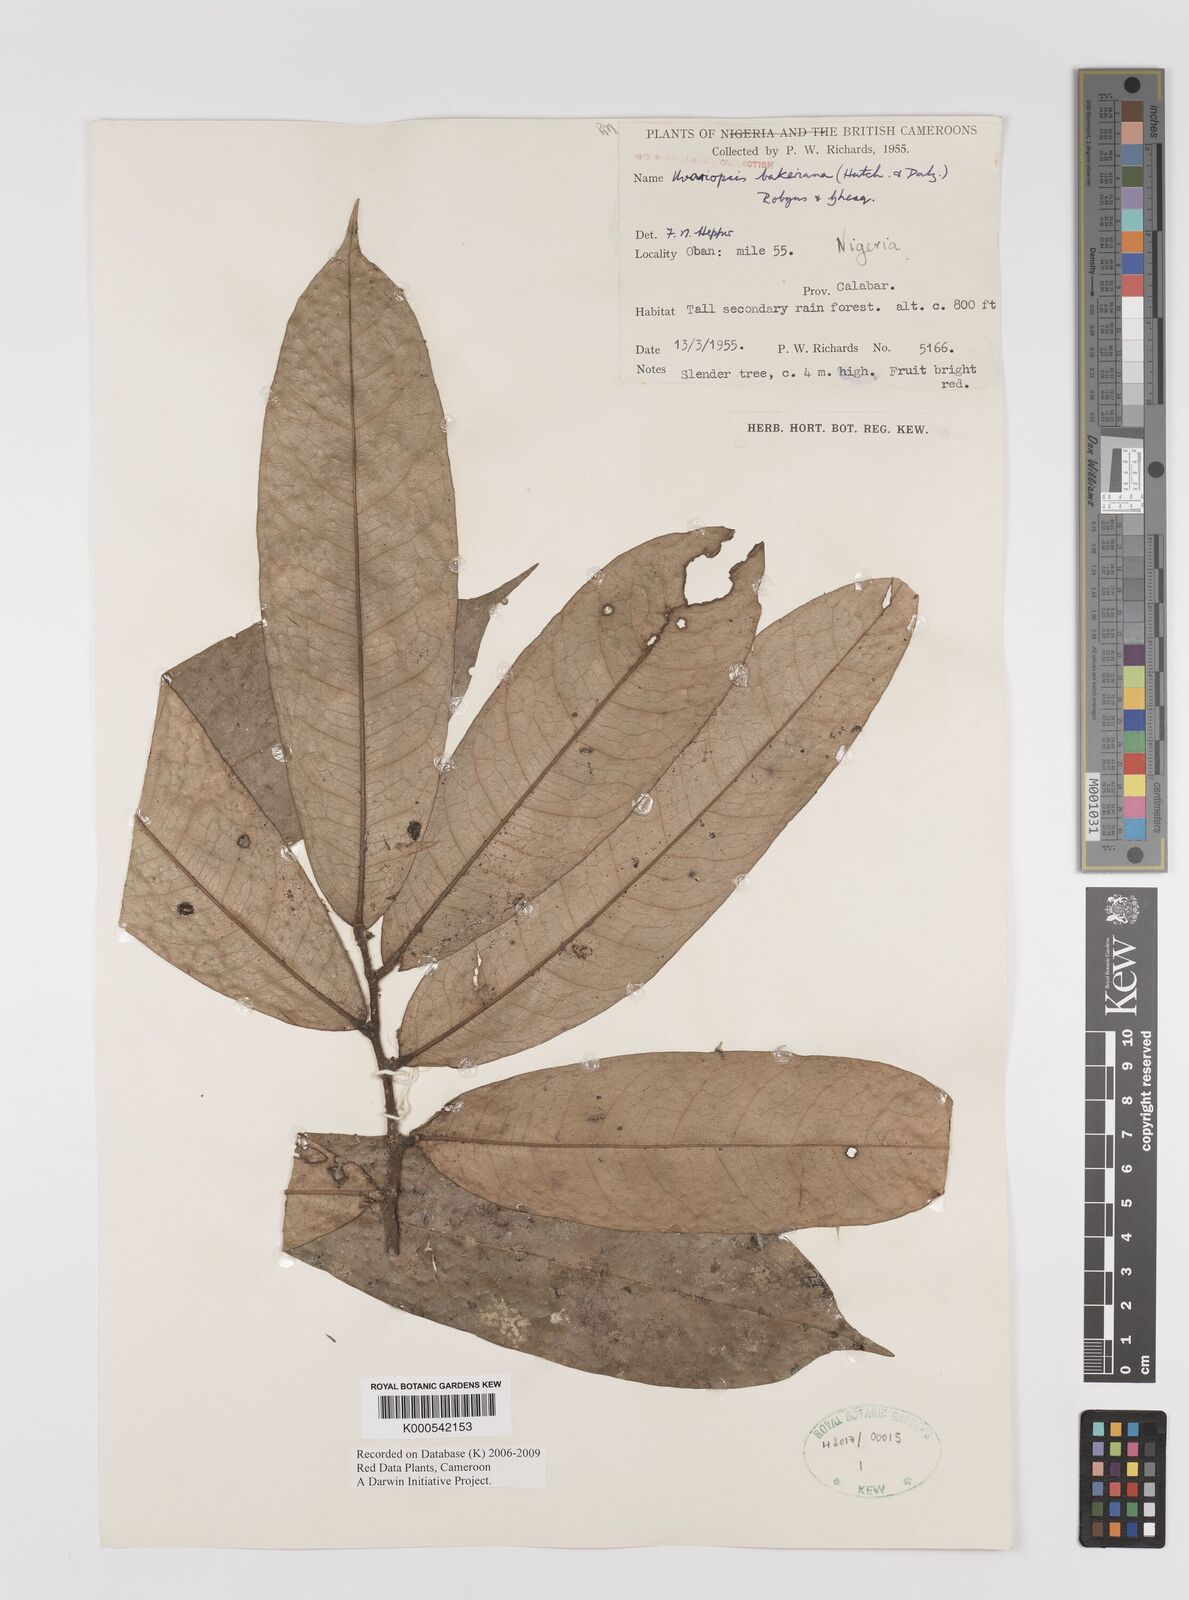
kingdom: Plantae
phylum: Tracheophyta
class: Magnoliopsida
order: Magnoliales
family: Annonaceae
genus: Uvariopsis
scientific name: Uvariopsis bakeriana
